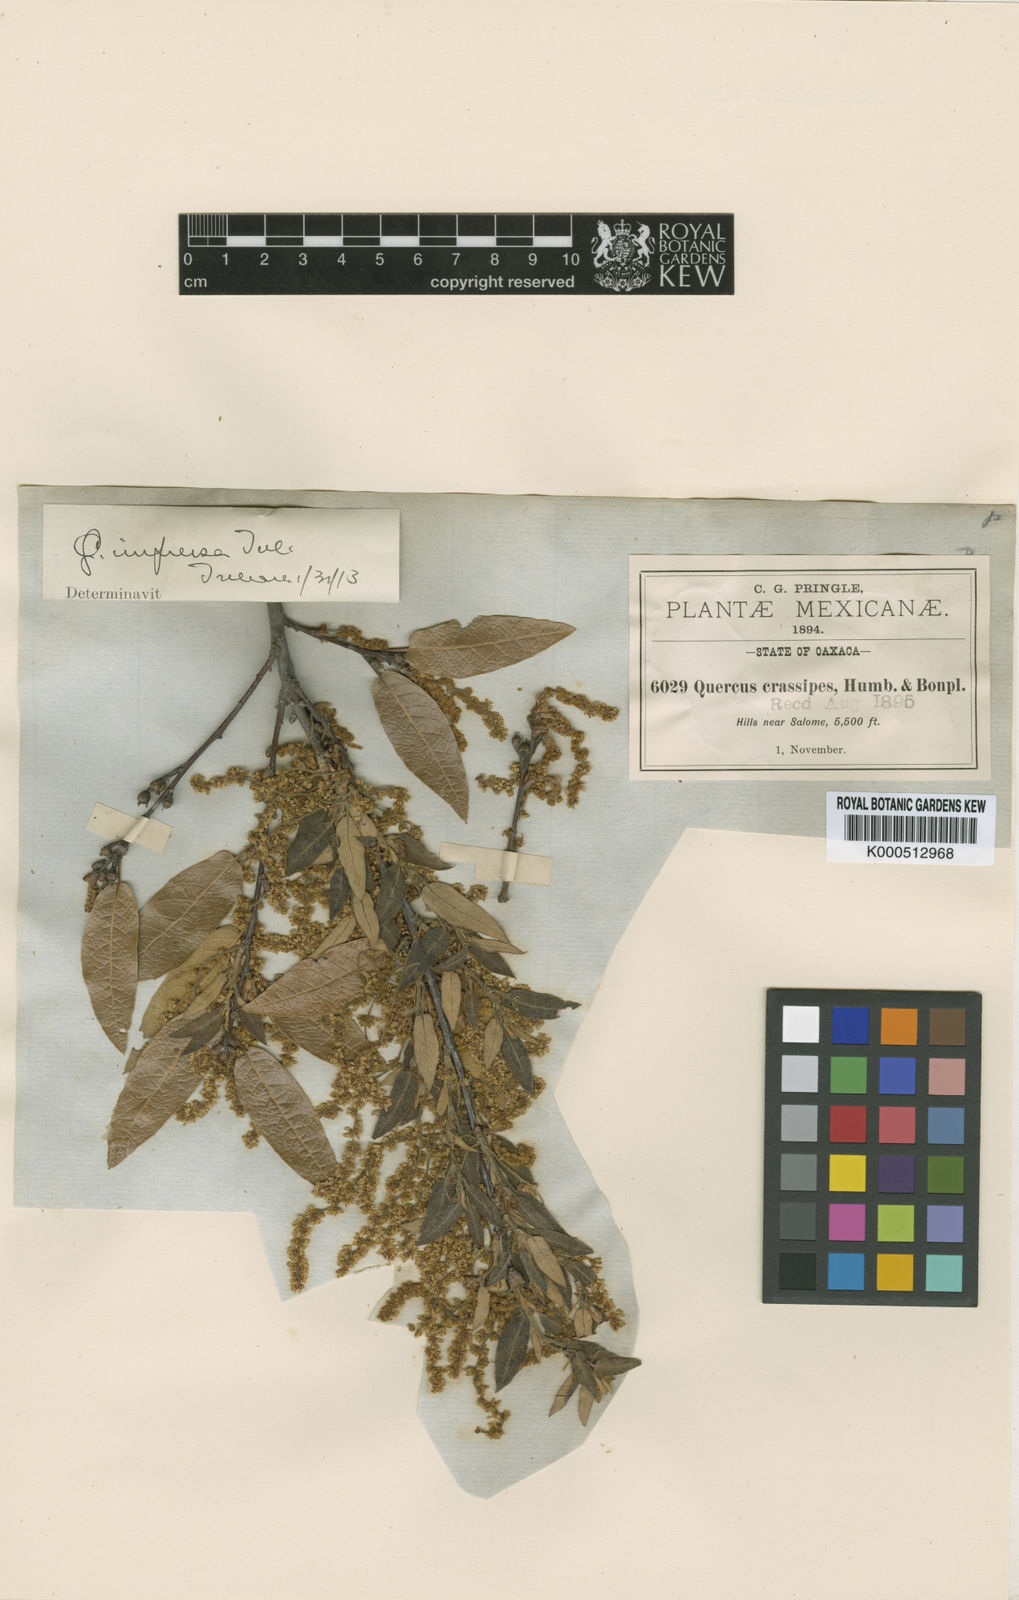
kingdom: Plantae
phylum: Tracheophyta
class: Magnoliopsida
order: Fagales
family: Fagaceae
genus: Quercus
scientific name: Quercus castanea
